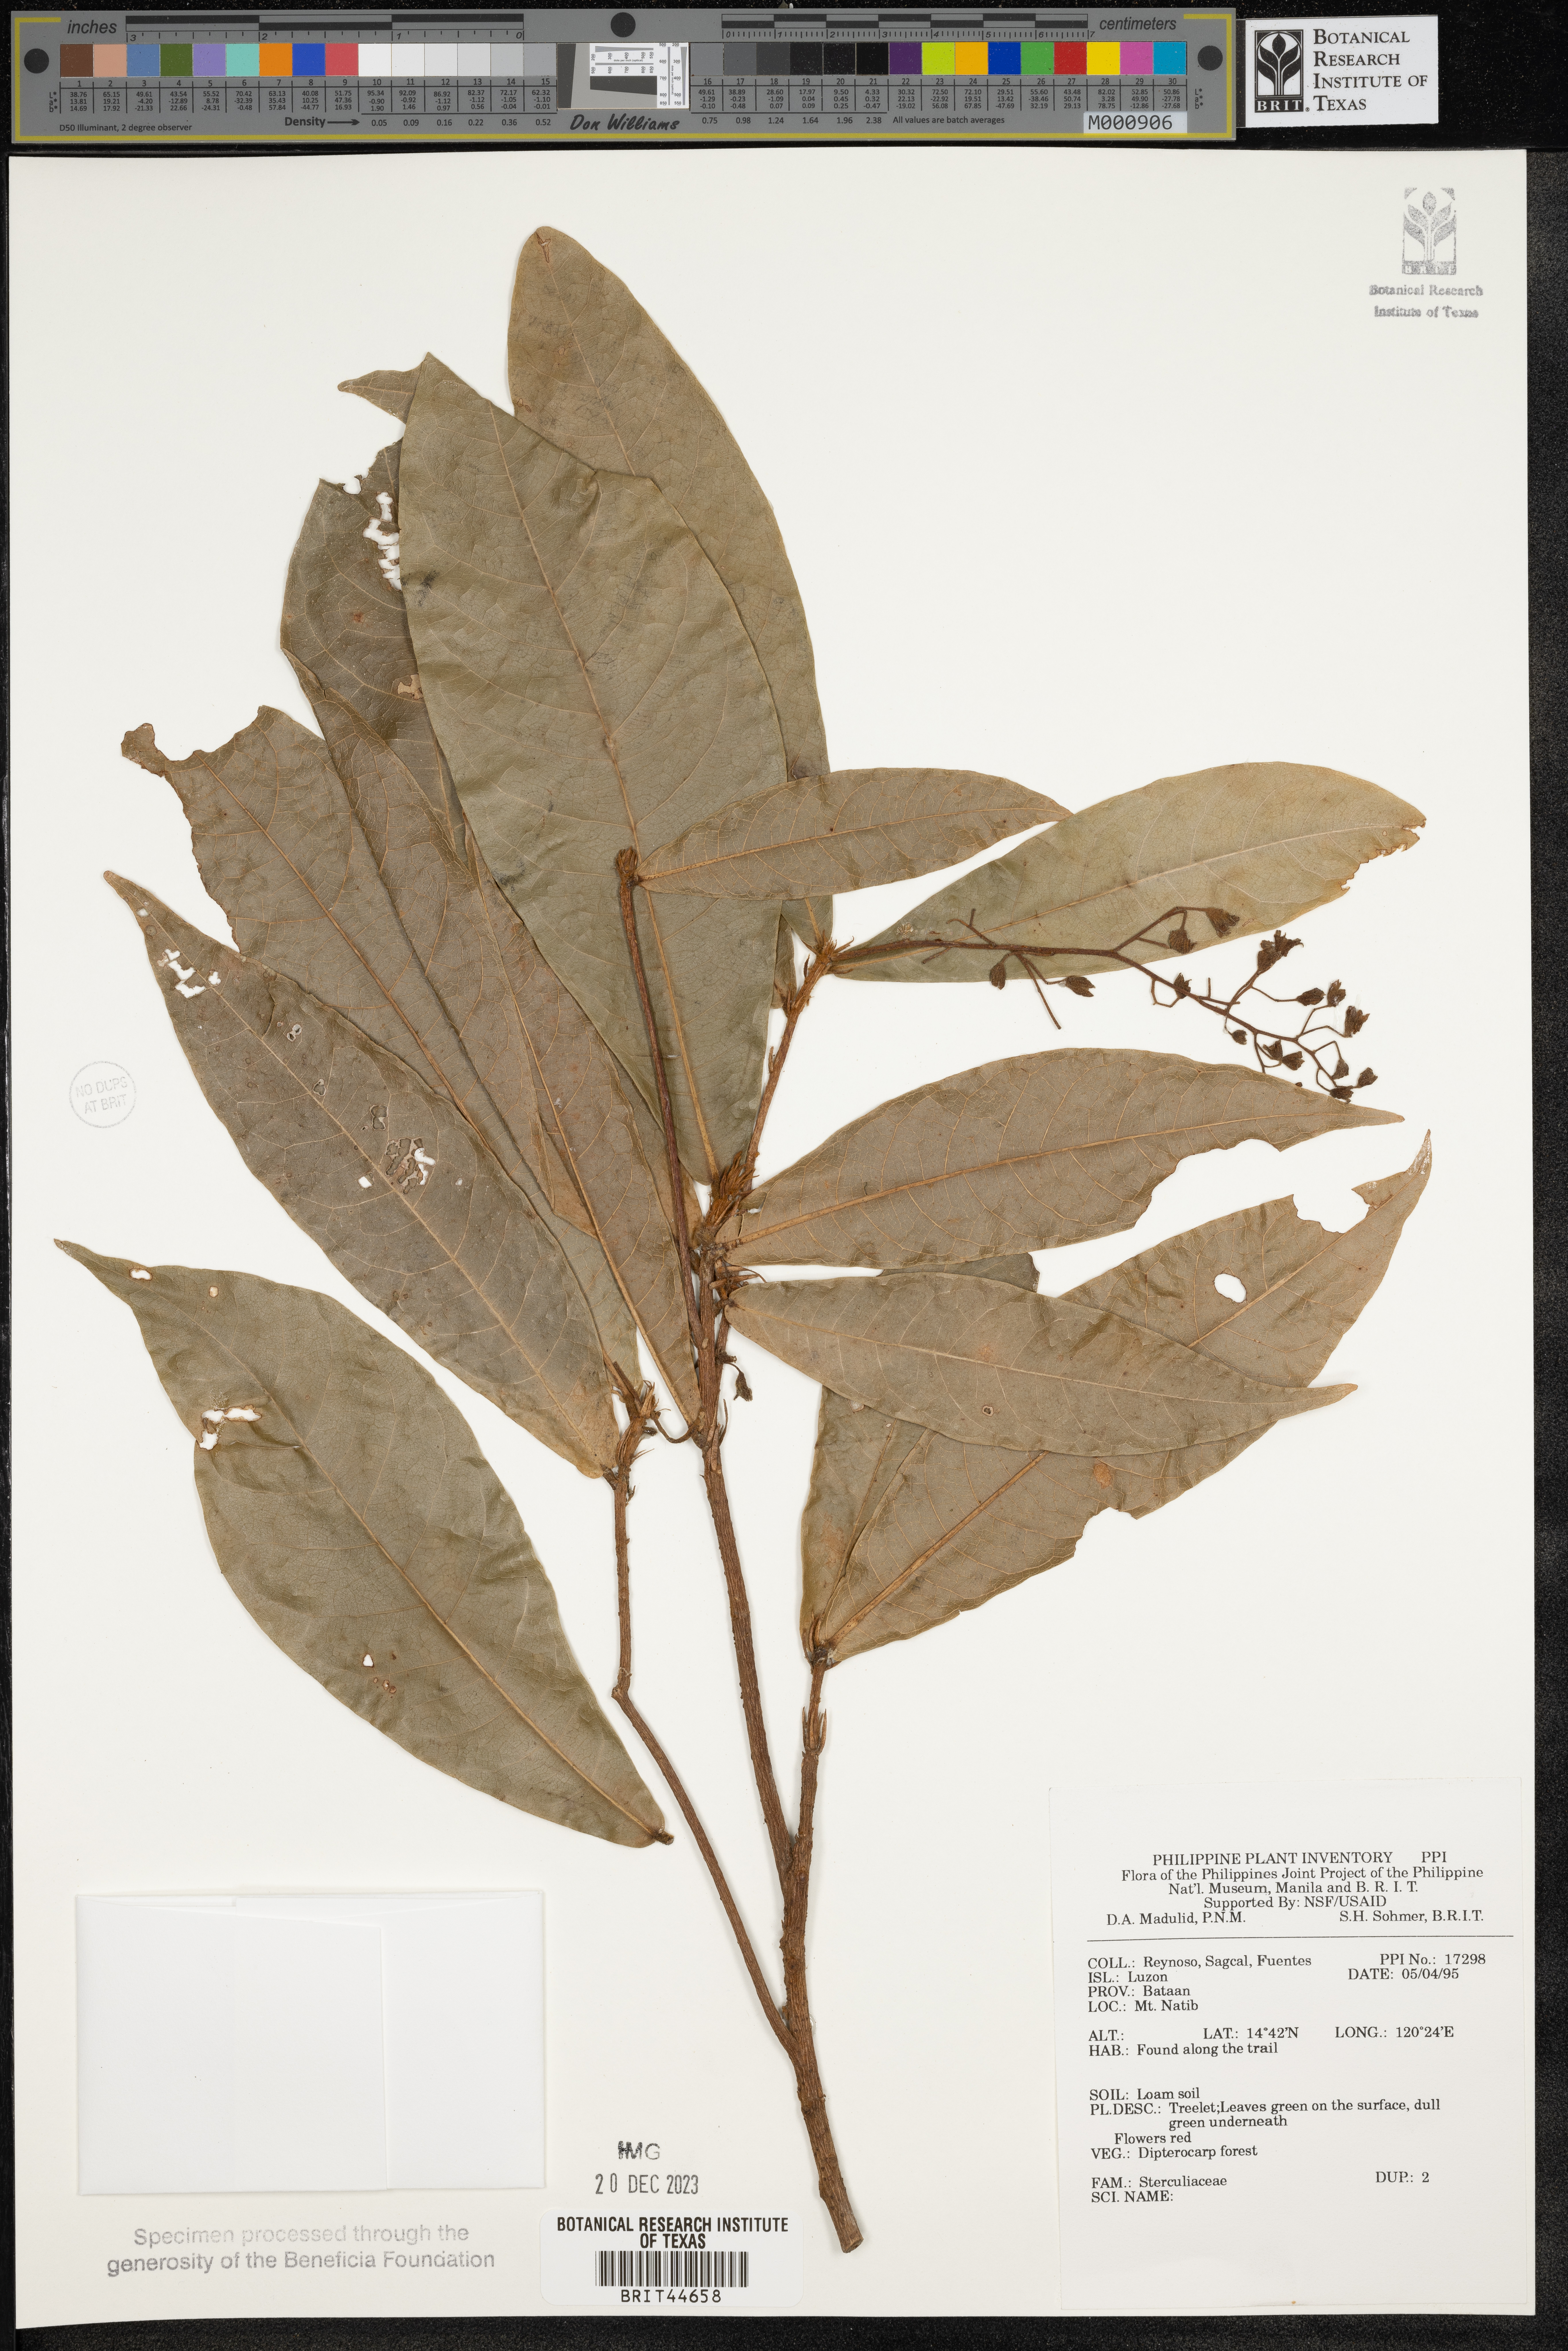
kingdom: Plantae
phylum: Tracheophyta
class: Magnoliopsida
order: Malvales
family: Sterculiaceae
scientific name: Sterculiaceae
